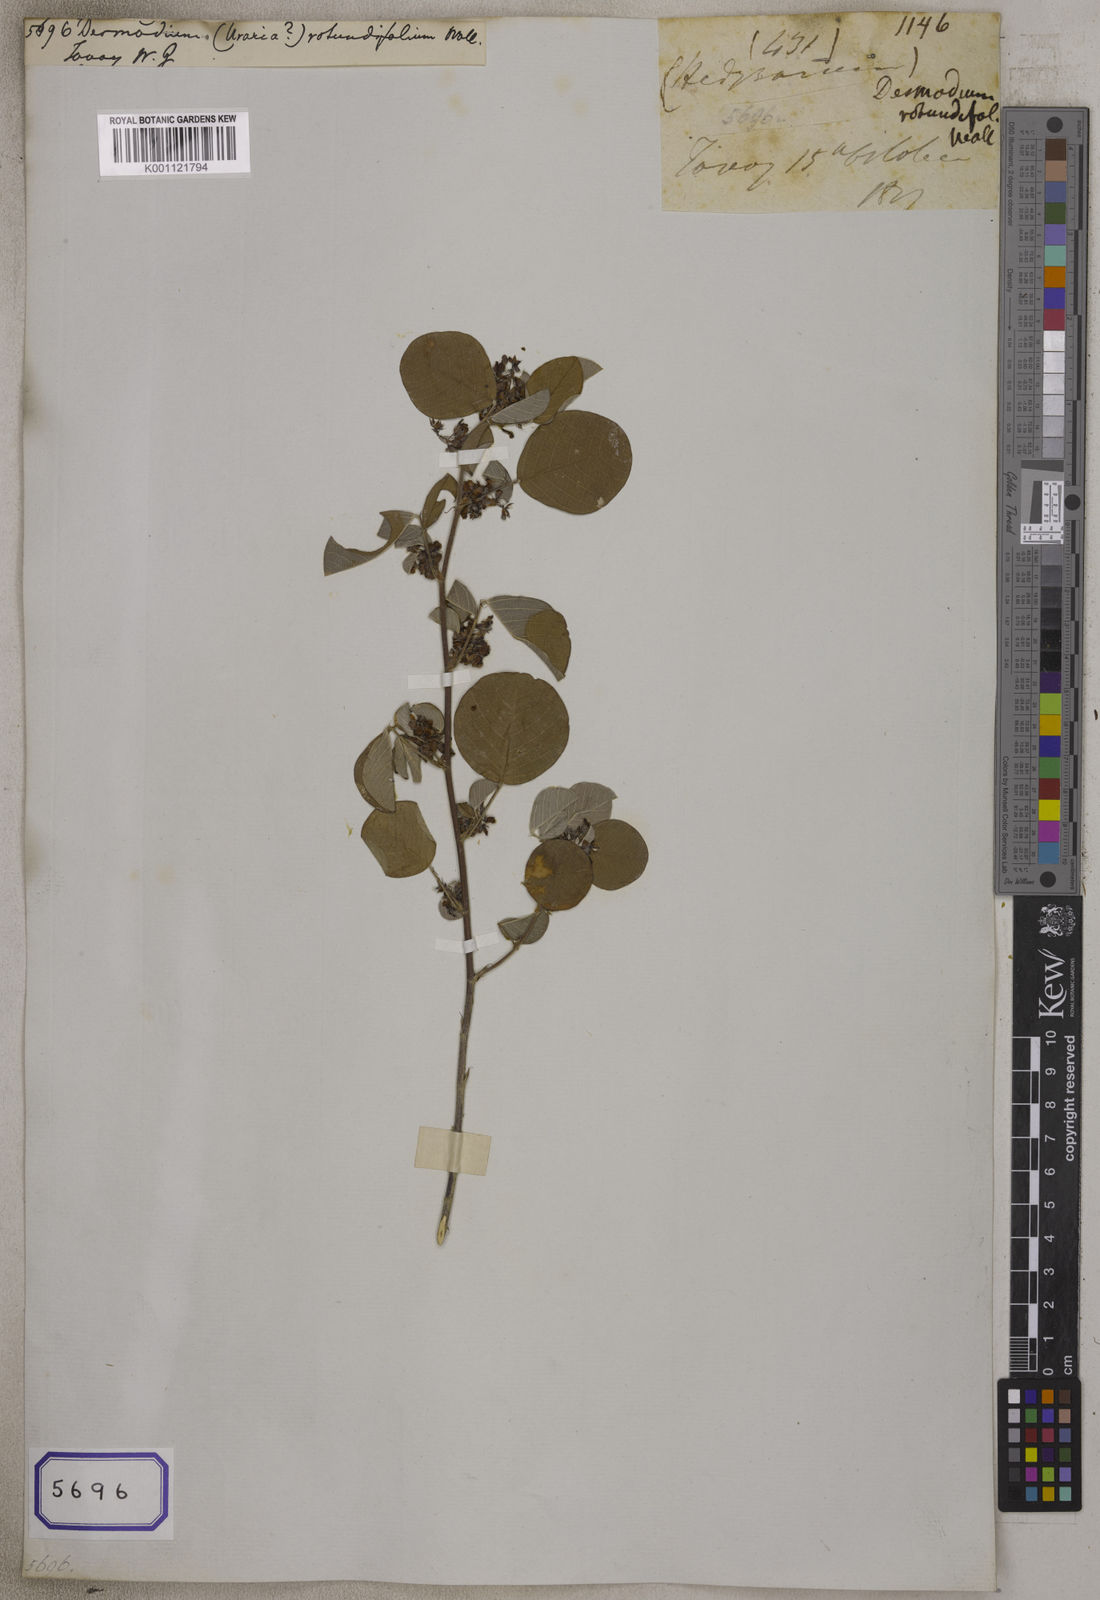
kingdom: Plantae
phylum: Tracheophyta
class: Magnoliopsida
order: Fabales
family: Fabaceae
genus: Desmodium
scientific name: Desmodium
